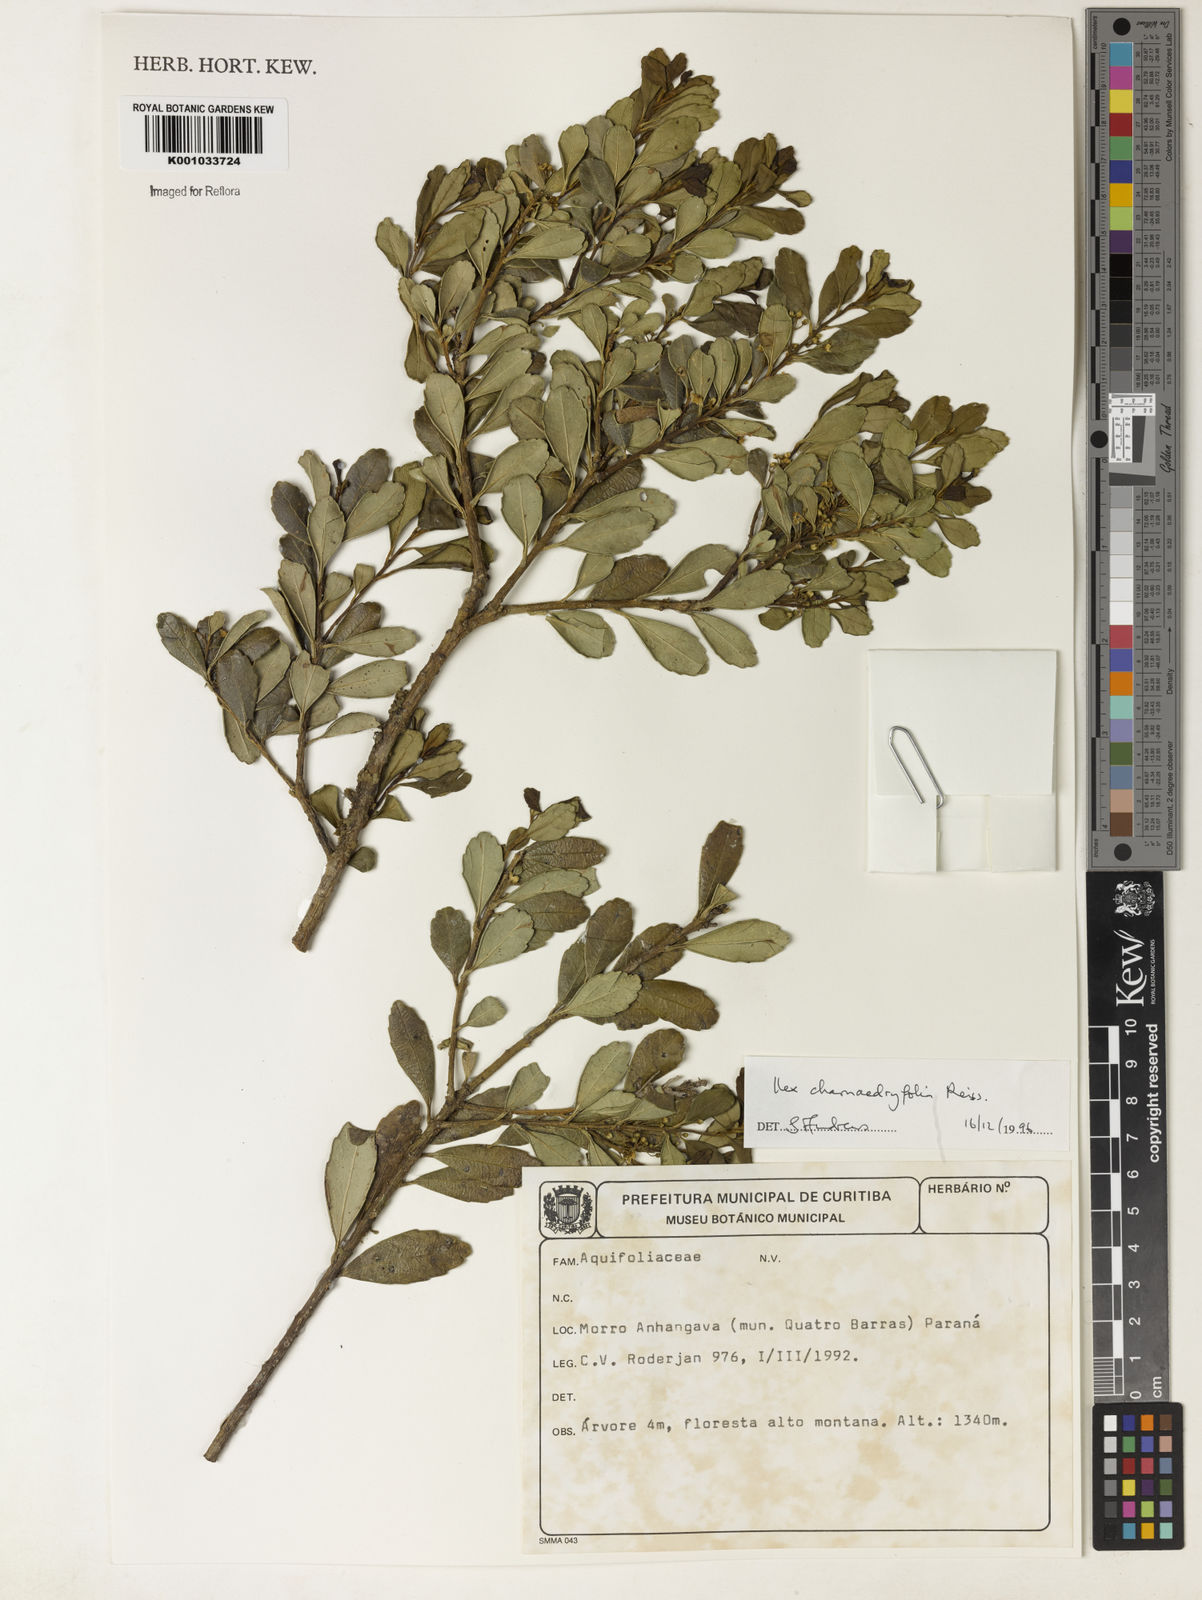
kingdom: Plantae
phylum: Tracheophyta
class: Magnoliopsida
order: Aquifoliales
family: Aquifoliaceae
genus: Ilex
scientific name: Ilex chamaedryfolia
